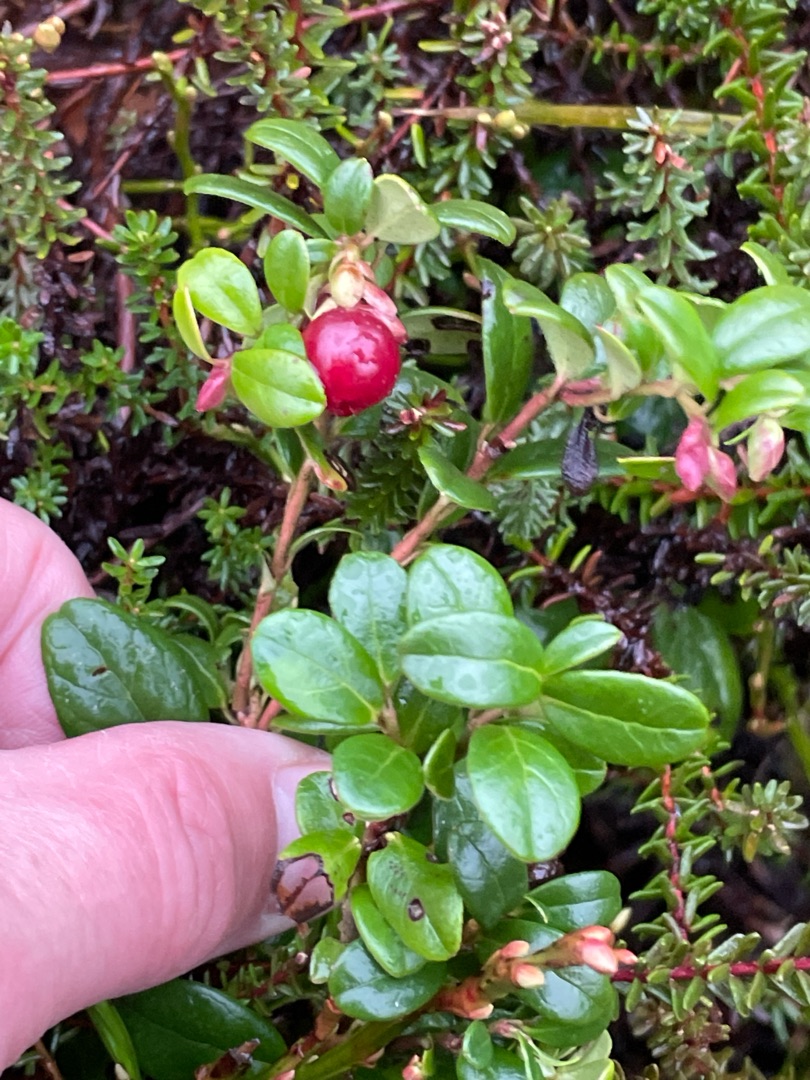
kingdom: Plantae
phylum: Tracheophyta
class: Magnoliopsida
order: Ericales
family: Ericaceae
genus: Vaccinium
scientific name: Vaccinium vitis-idaea
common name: Tyttebær
